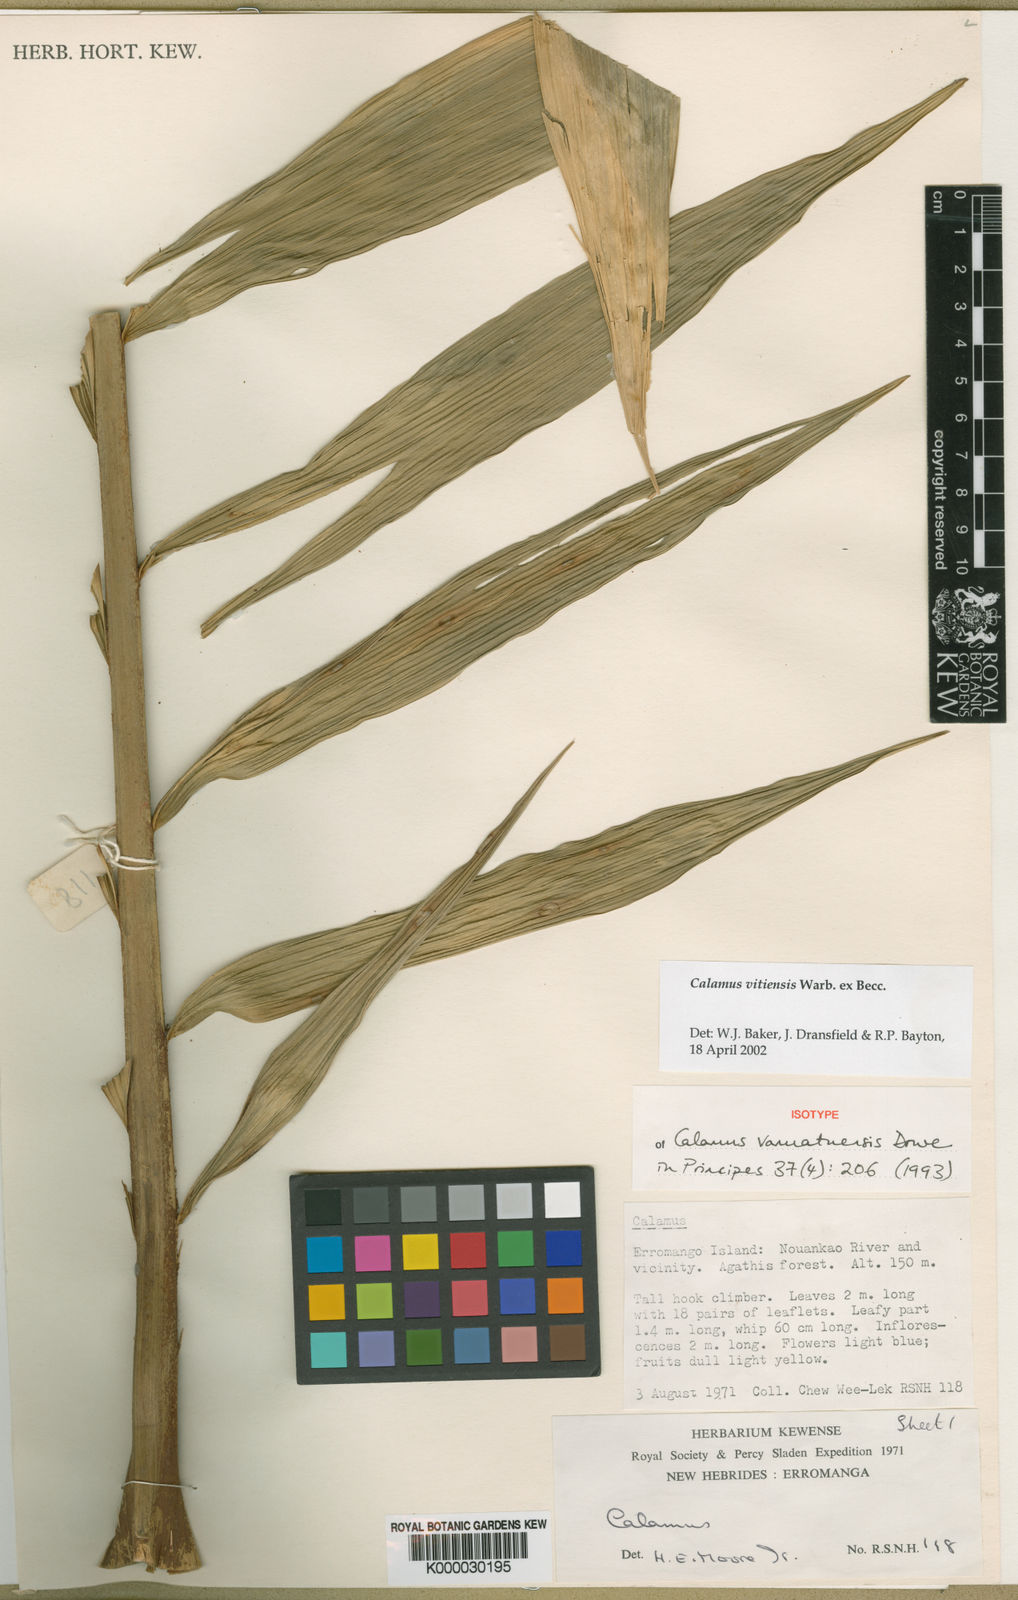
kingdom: Plantae
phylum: Tracheophyta
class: Liliopsida
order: Arecales
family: Arecaceae
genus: Calamus
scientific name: Calamus vitiensis
